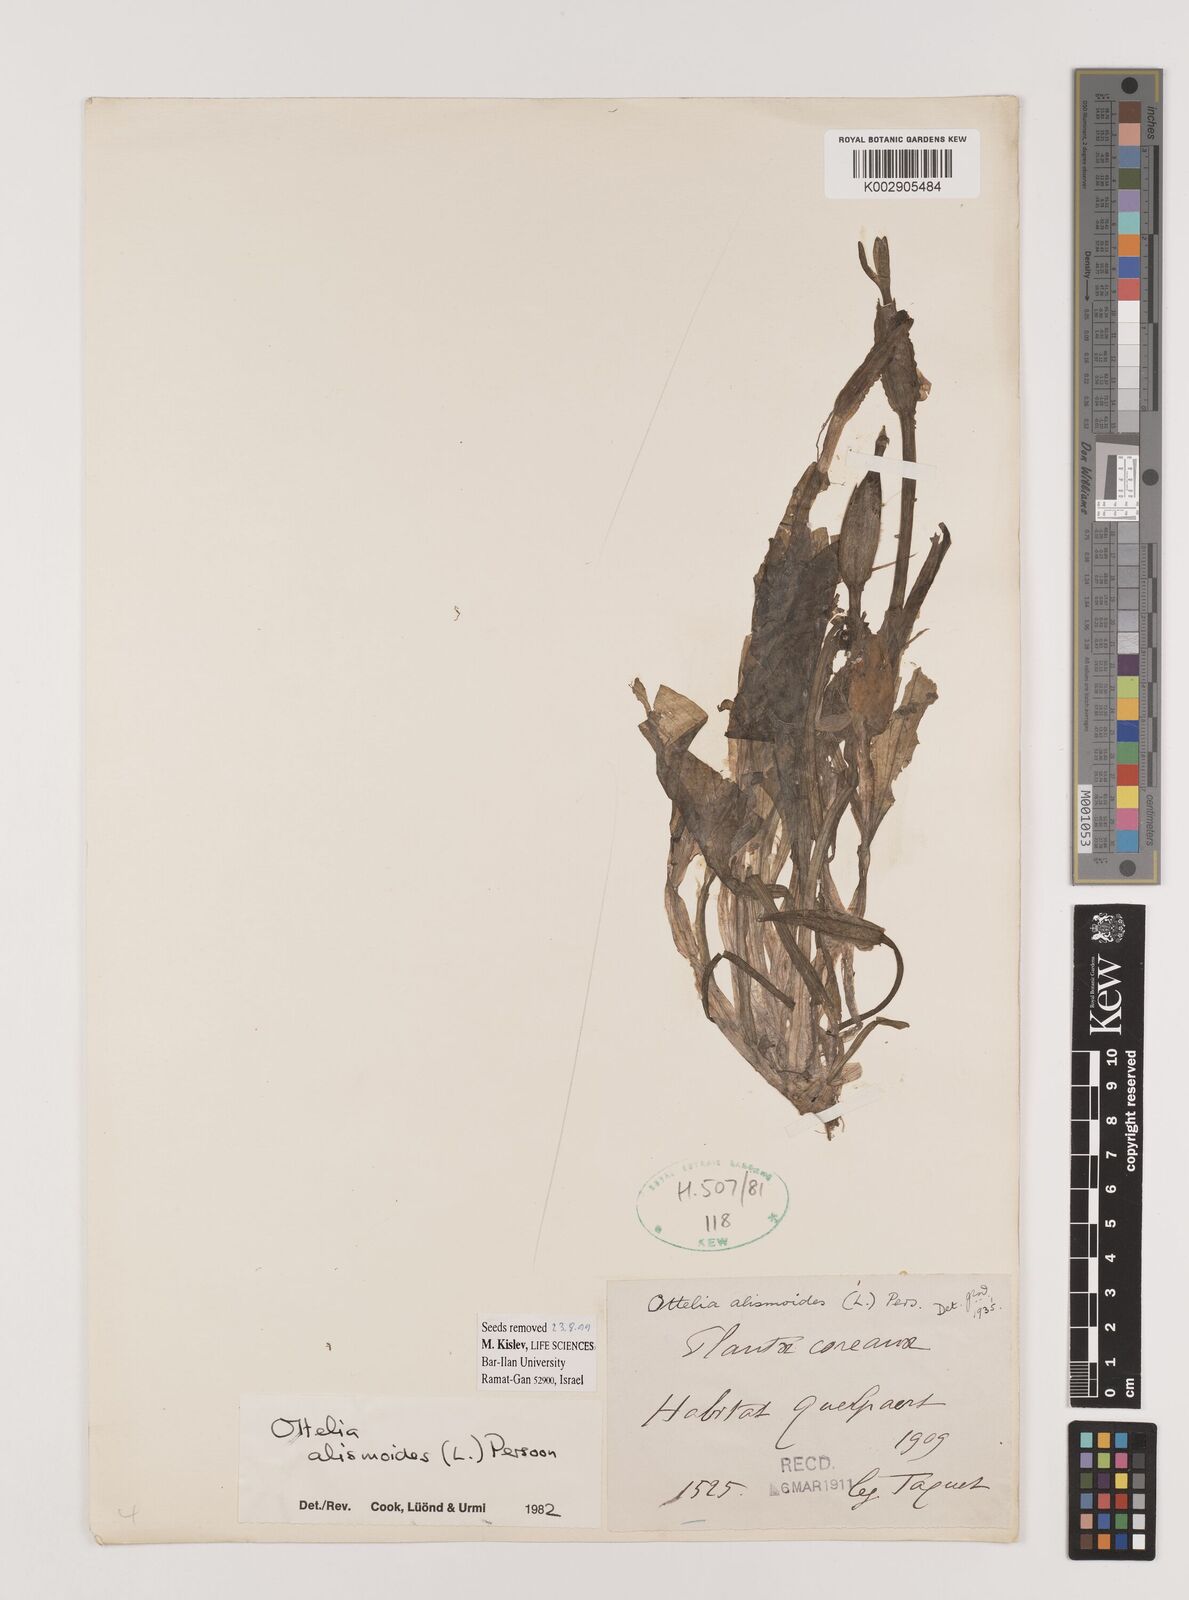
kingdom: Plantae
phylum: Tracheophyta
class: Liliopsida
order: Alismatales
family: Hydrocharitaceae
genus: Ottelia
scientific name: Ottelia alismoides
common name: Duck-lettuce
